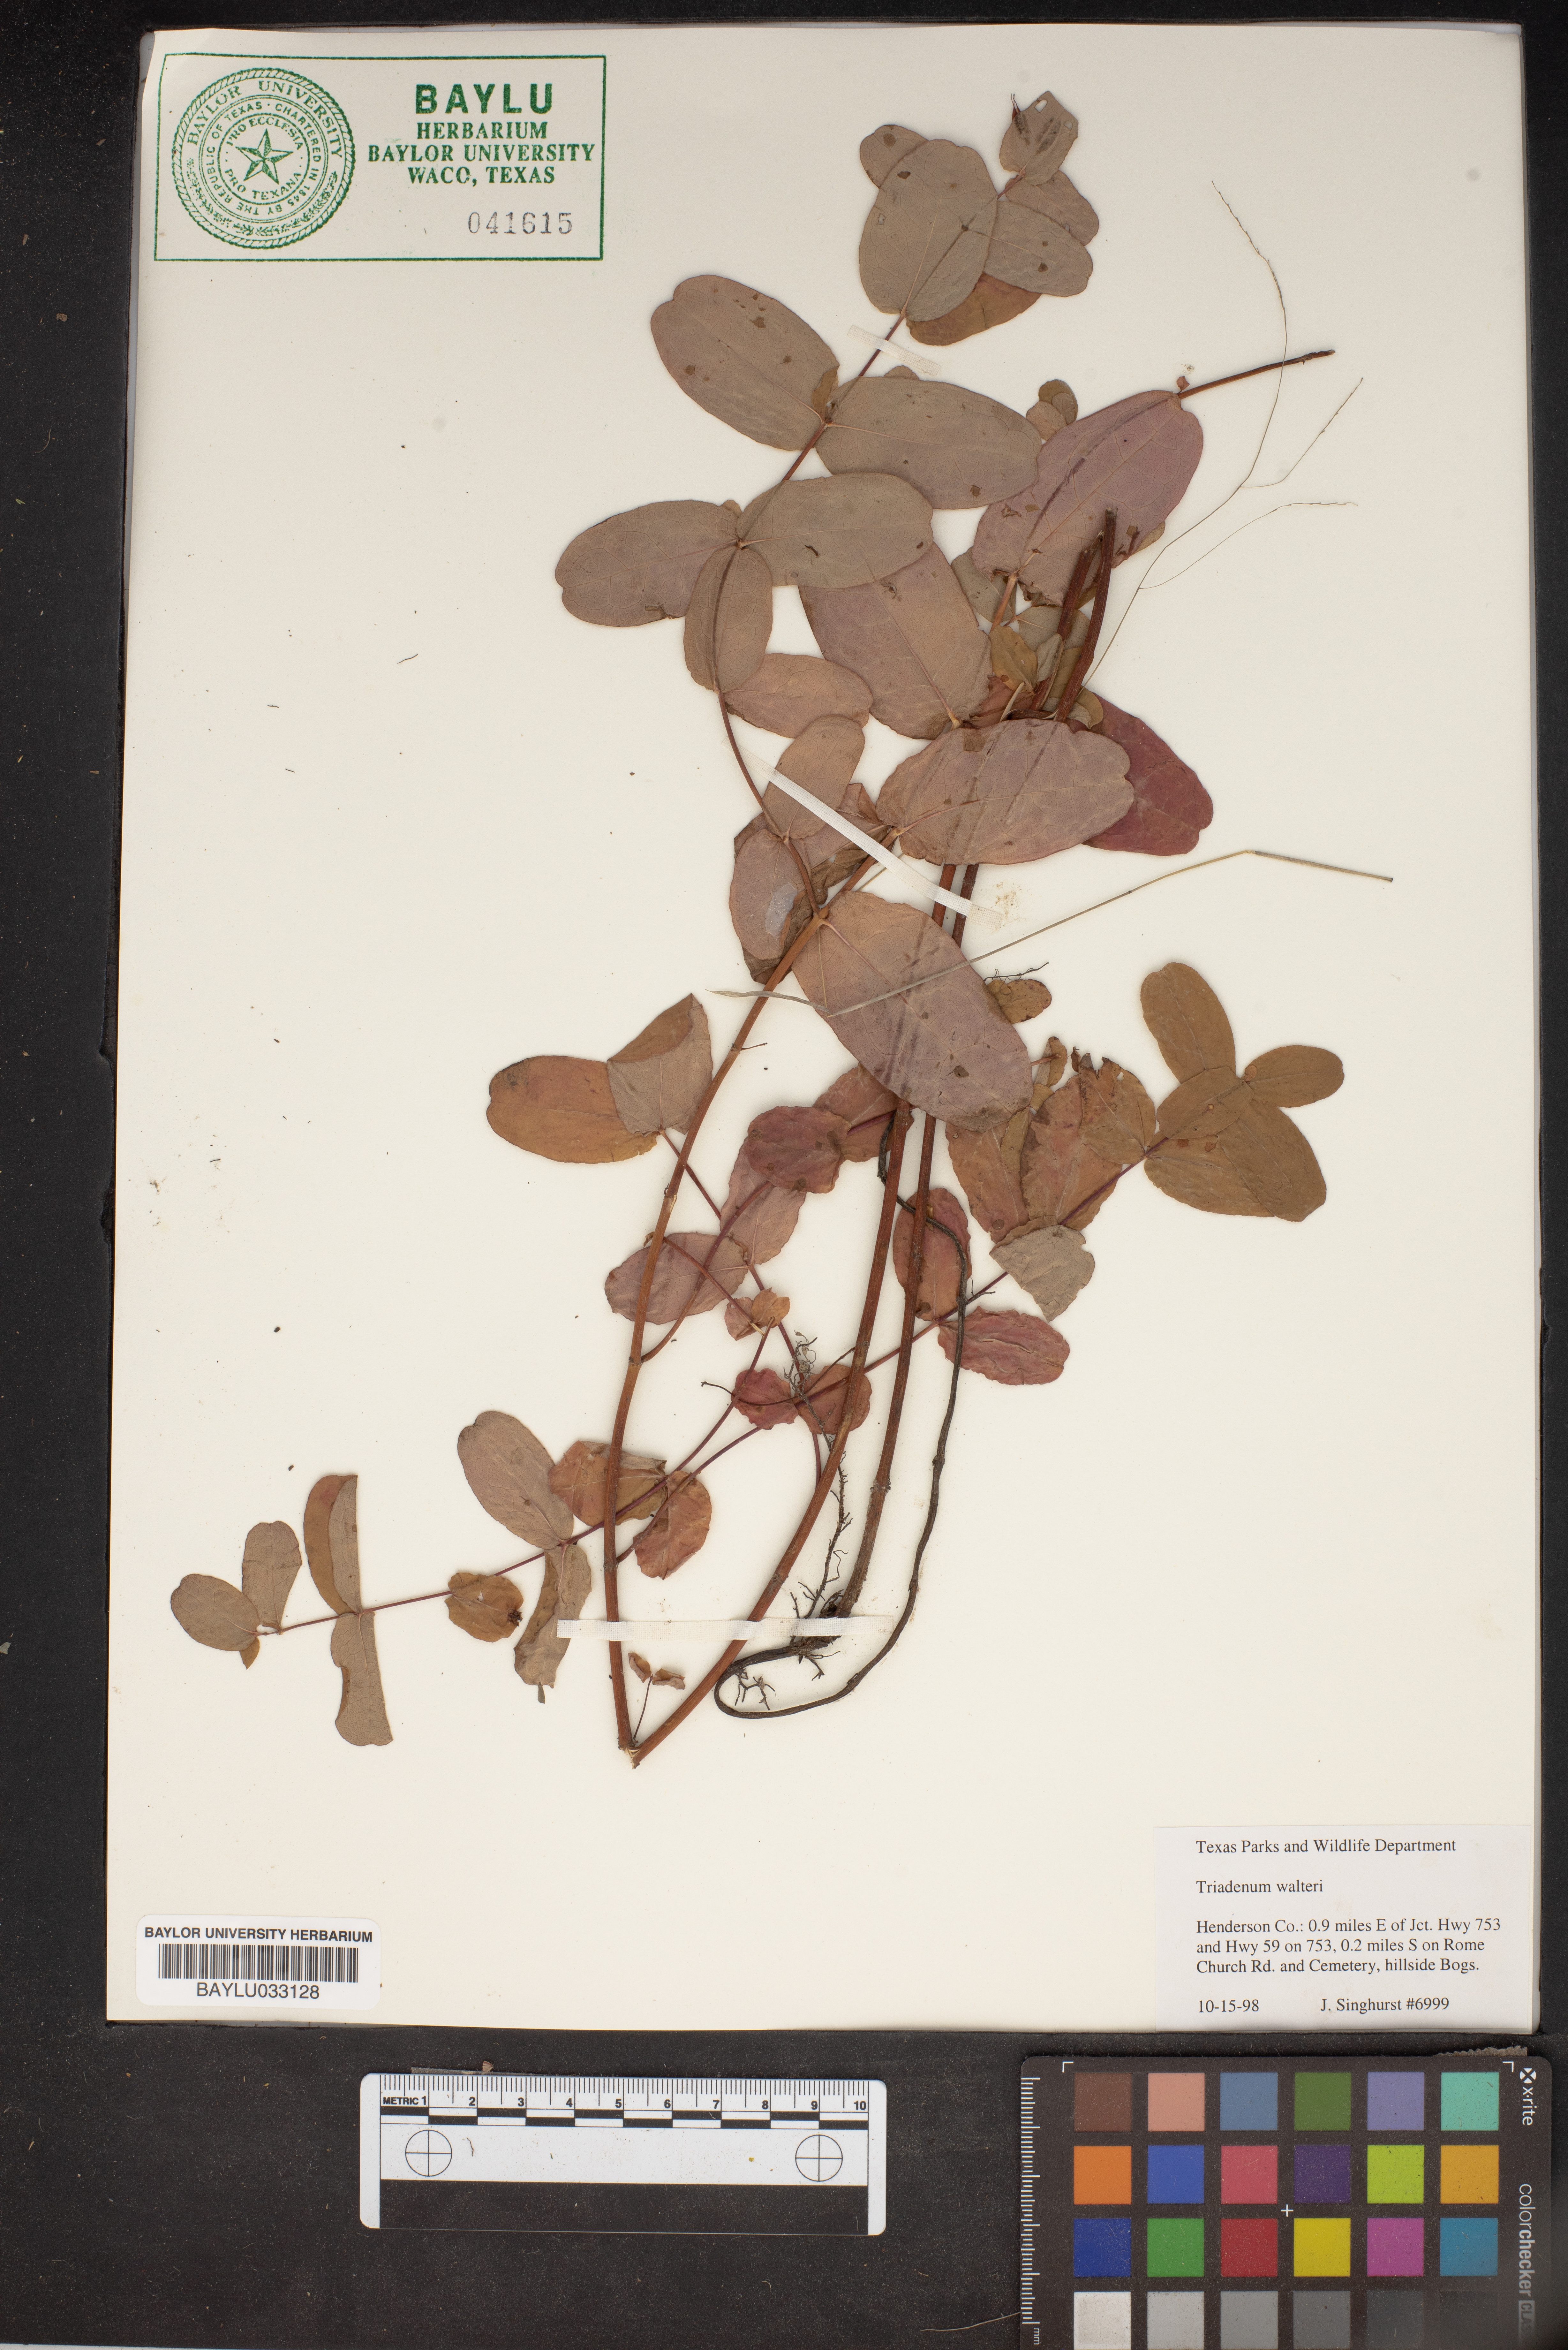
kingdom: Plantae
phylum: Tracheophyta
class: Magnoliopsida
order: Malpighiales
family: Hypericaceae
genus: Triadenum
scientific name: Triadenum walteri
